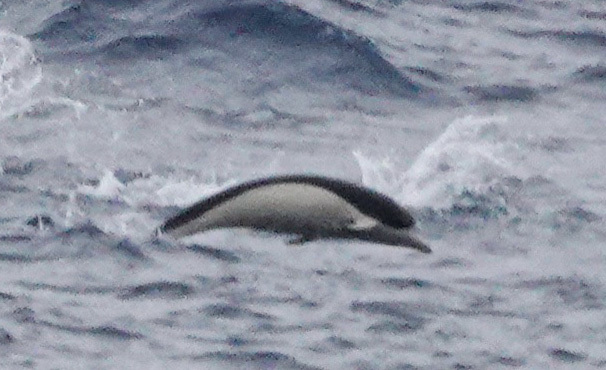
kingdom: Animalia
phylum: Chordata
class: Mammalia
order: Cetacea
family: Delphinidae
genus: Lissodelphis
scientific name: Lissodelphis peronii
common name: Southern Right Whale Dolphin
